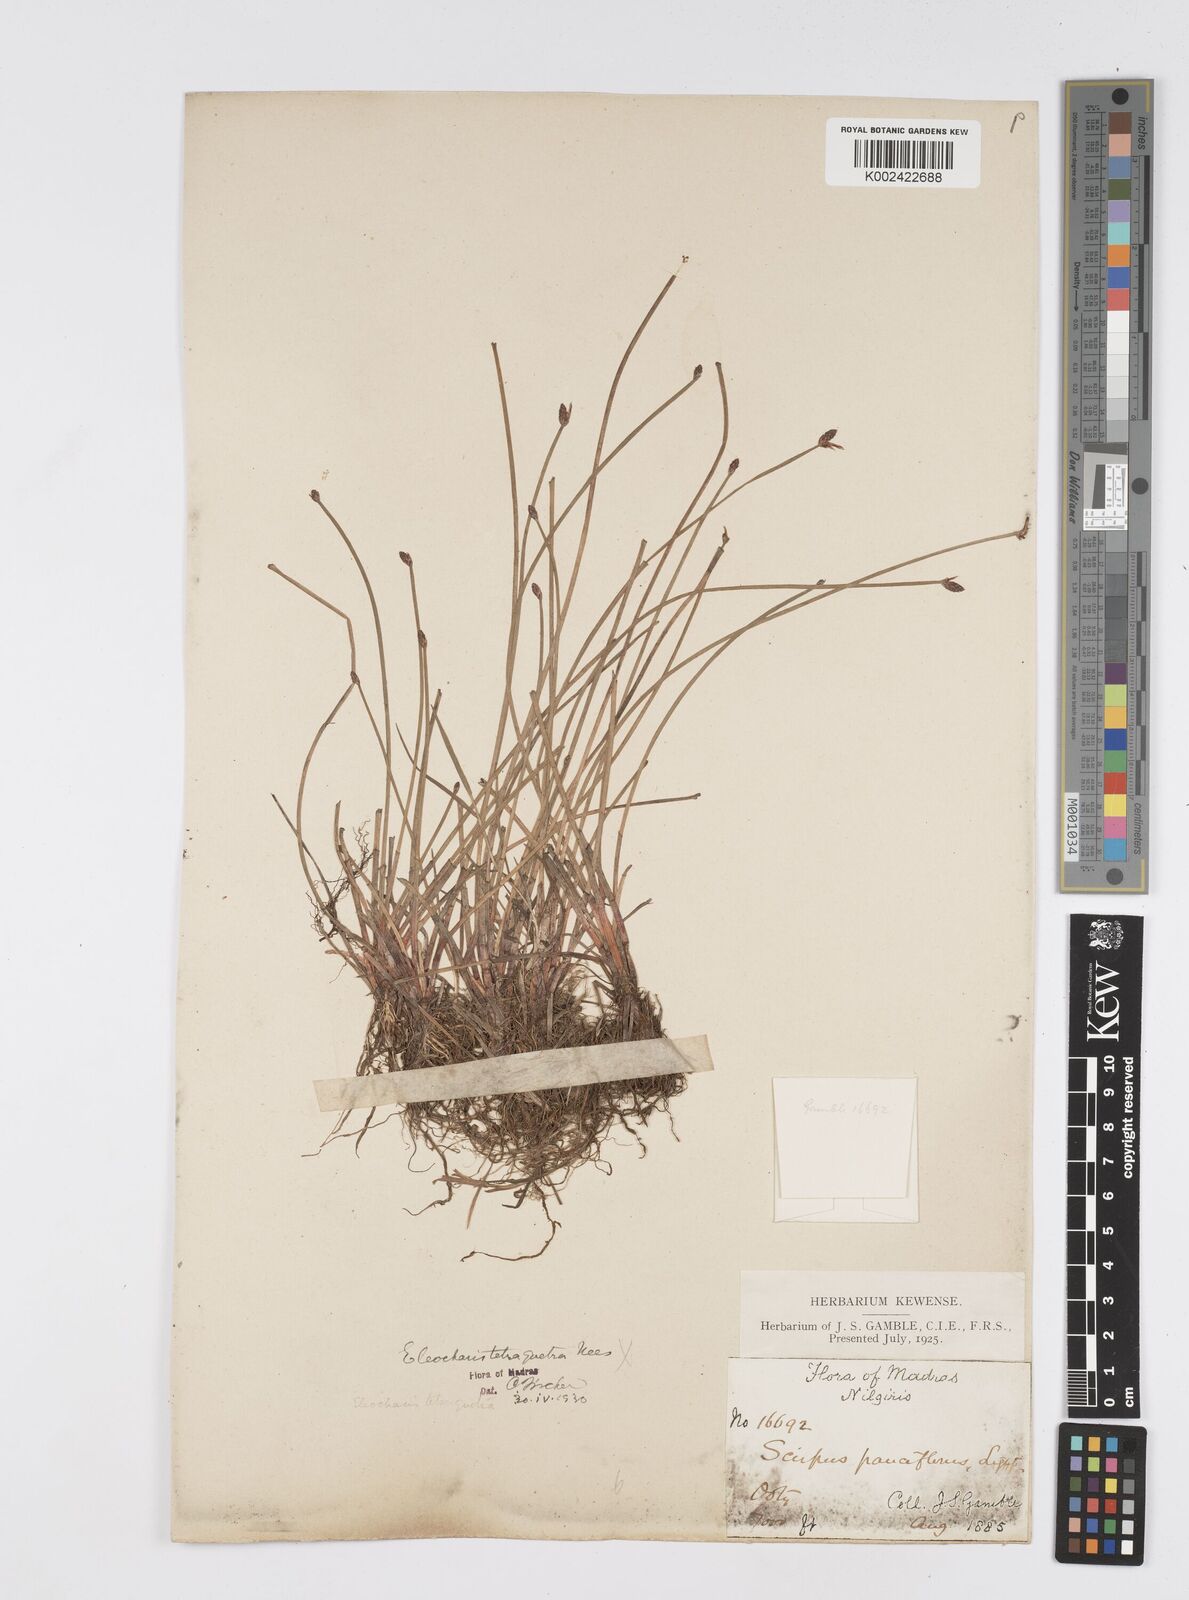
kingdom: Plantae
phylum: Tracheophyta
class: Liliopsida
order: Poales
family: Cyperaceae
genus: Eleocharis
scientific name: Eleocharis congesta
